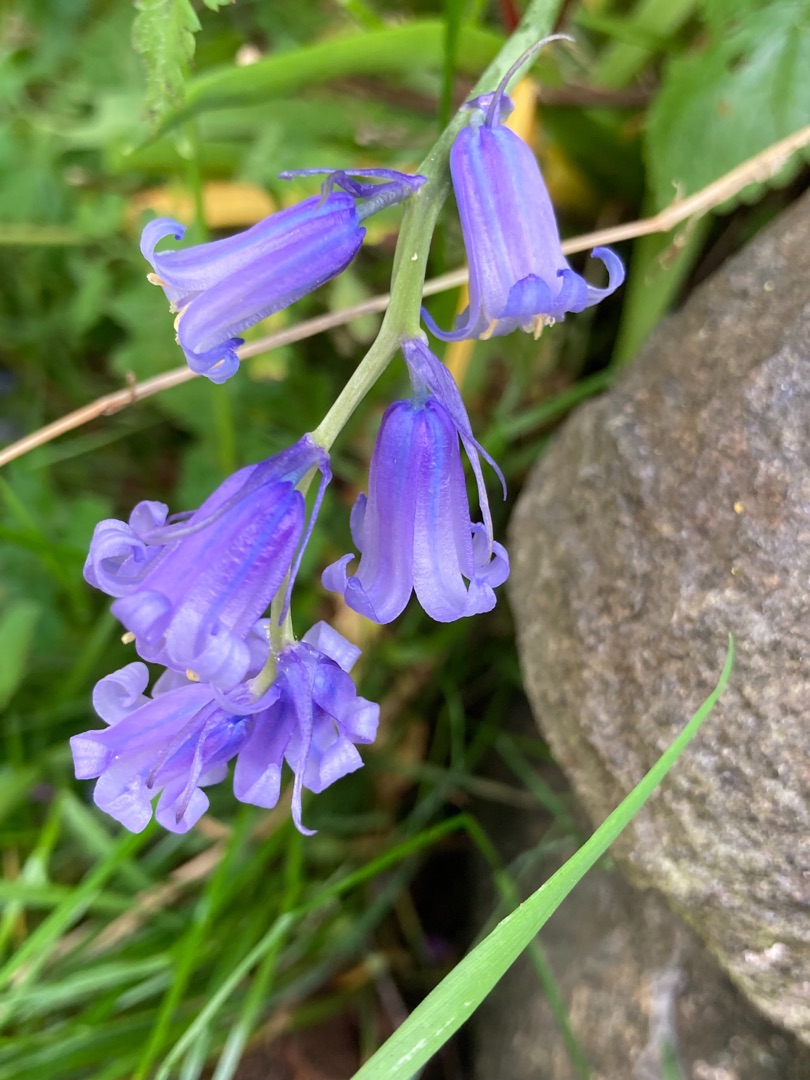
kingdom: Plantae
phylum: Tracheophyta
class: Liliopsida
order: Asparagales
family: Asparagaceae
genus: Hyacinthoides
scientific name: Hyacinthoides non-scripta
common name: Klokke-skilla
